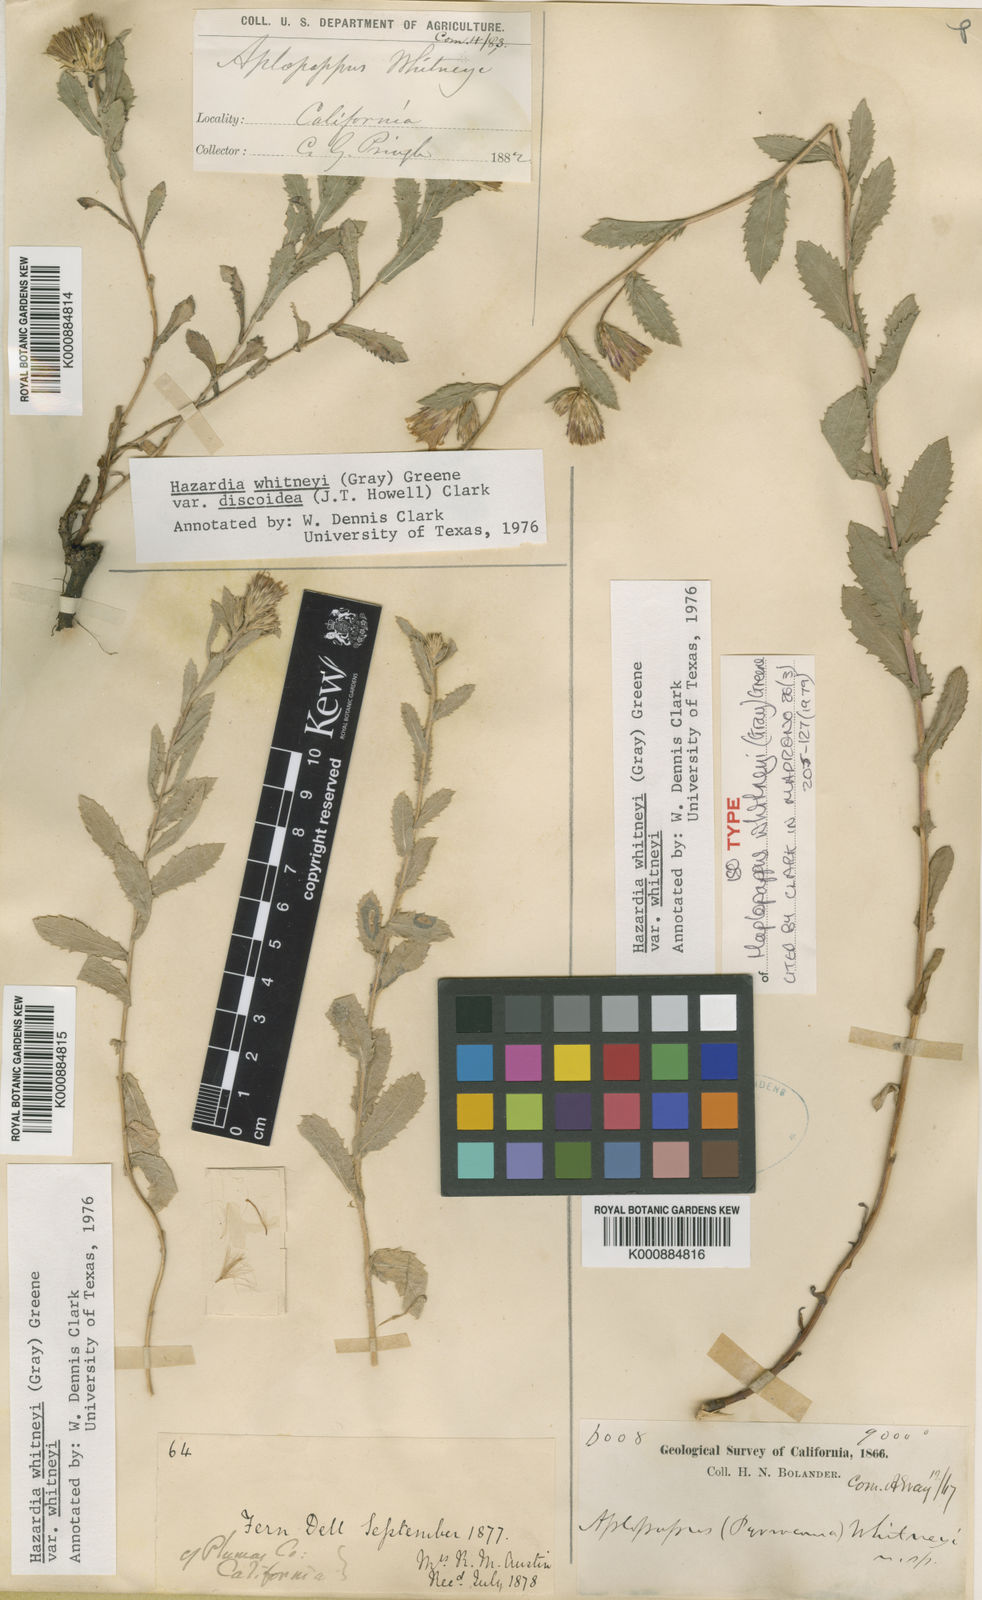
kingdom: Plantae
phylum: Tracheophyta
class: Magnoliopsida
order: Asterales
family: Asteraceae
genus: Hazardia
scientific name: Hazardia
